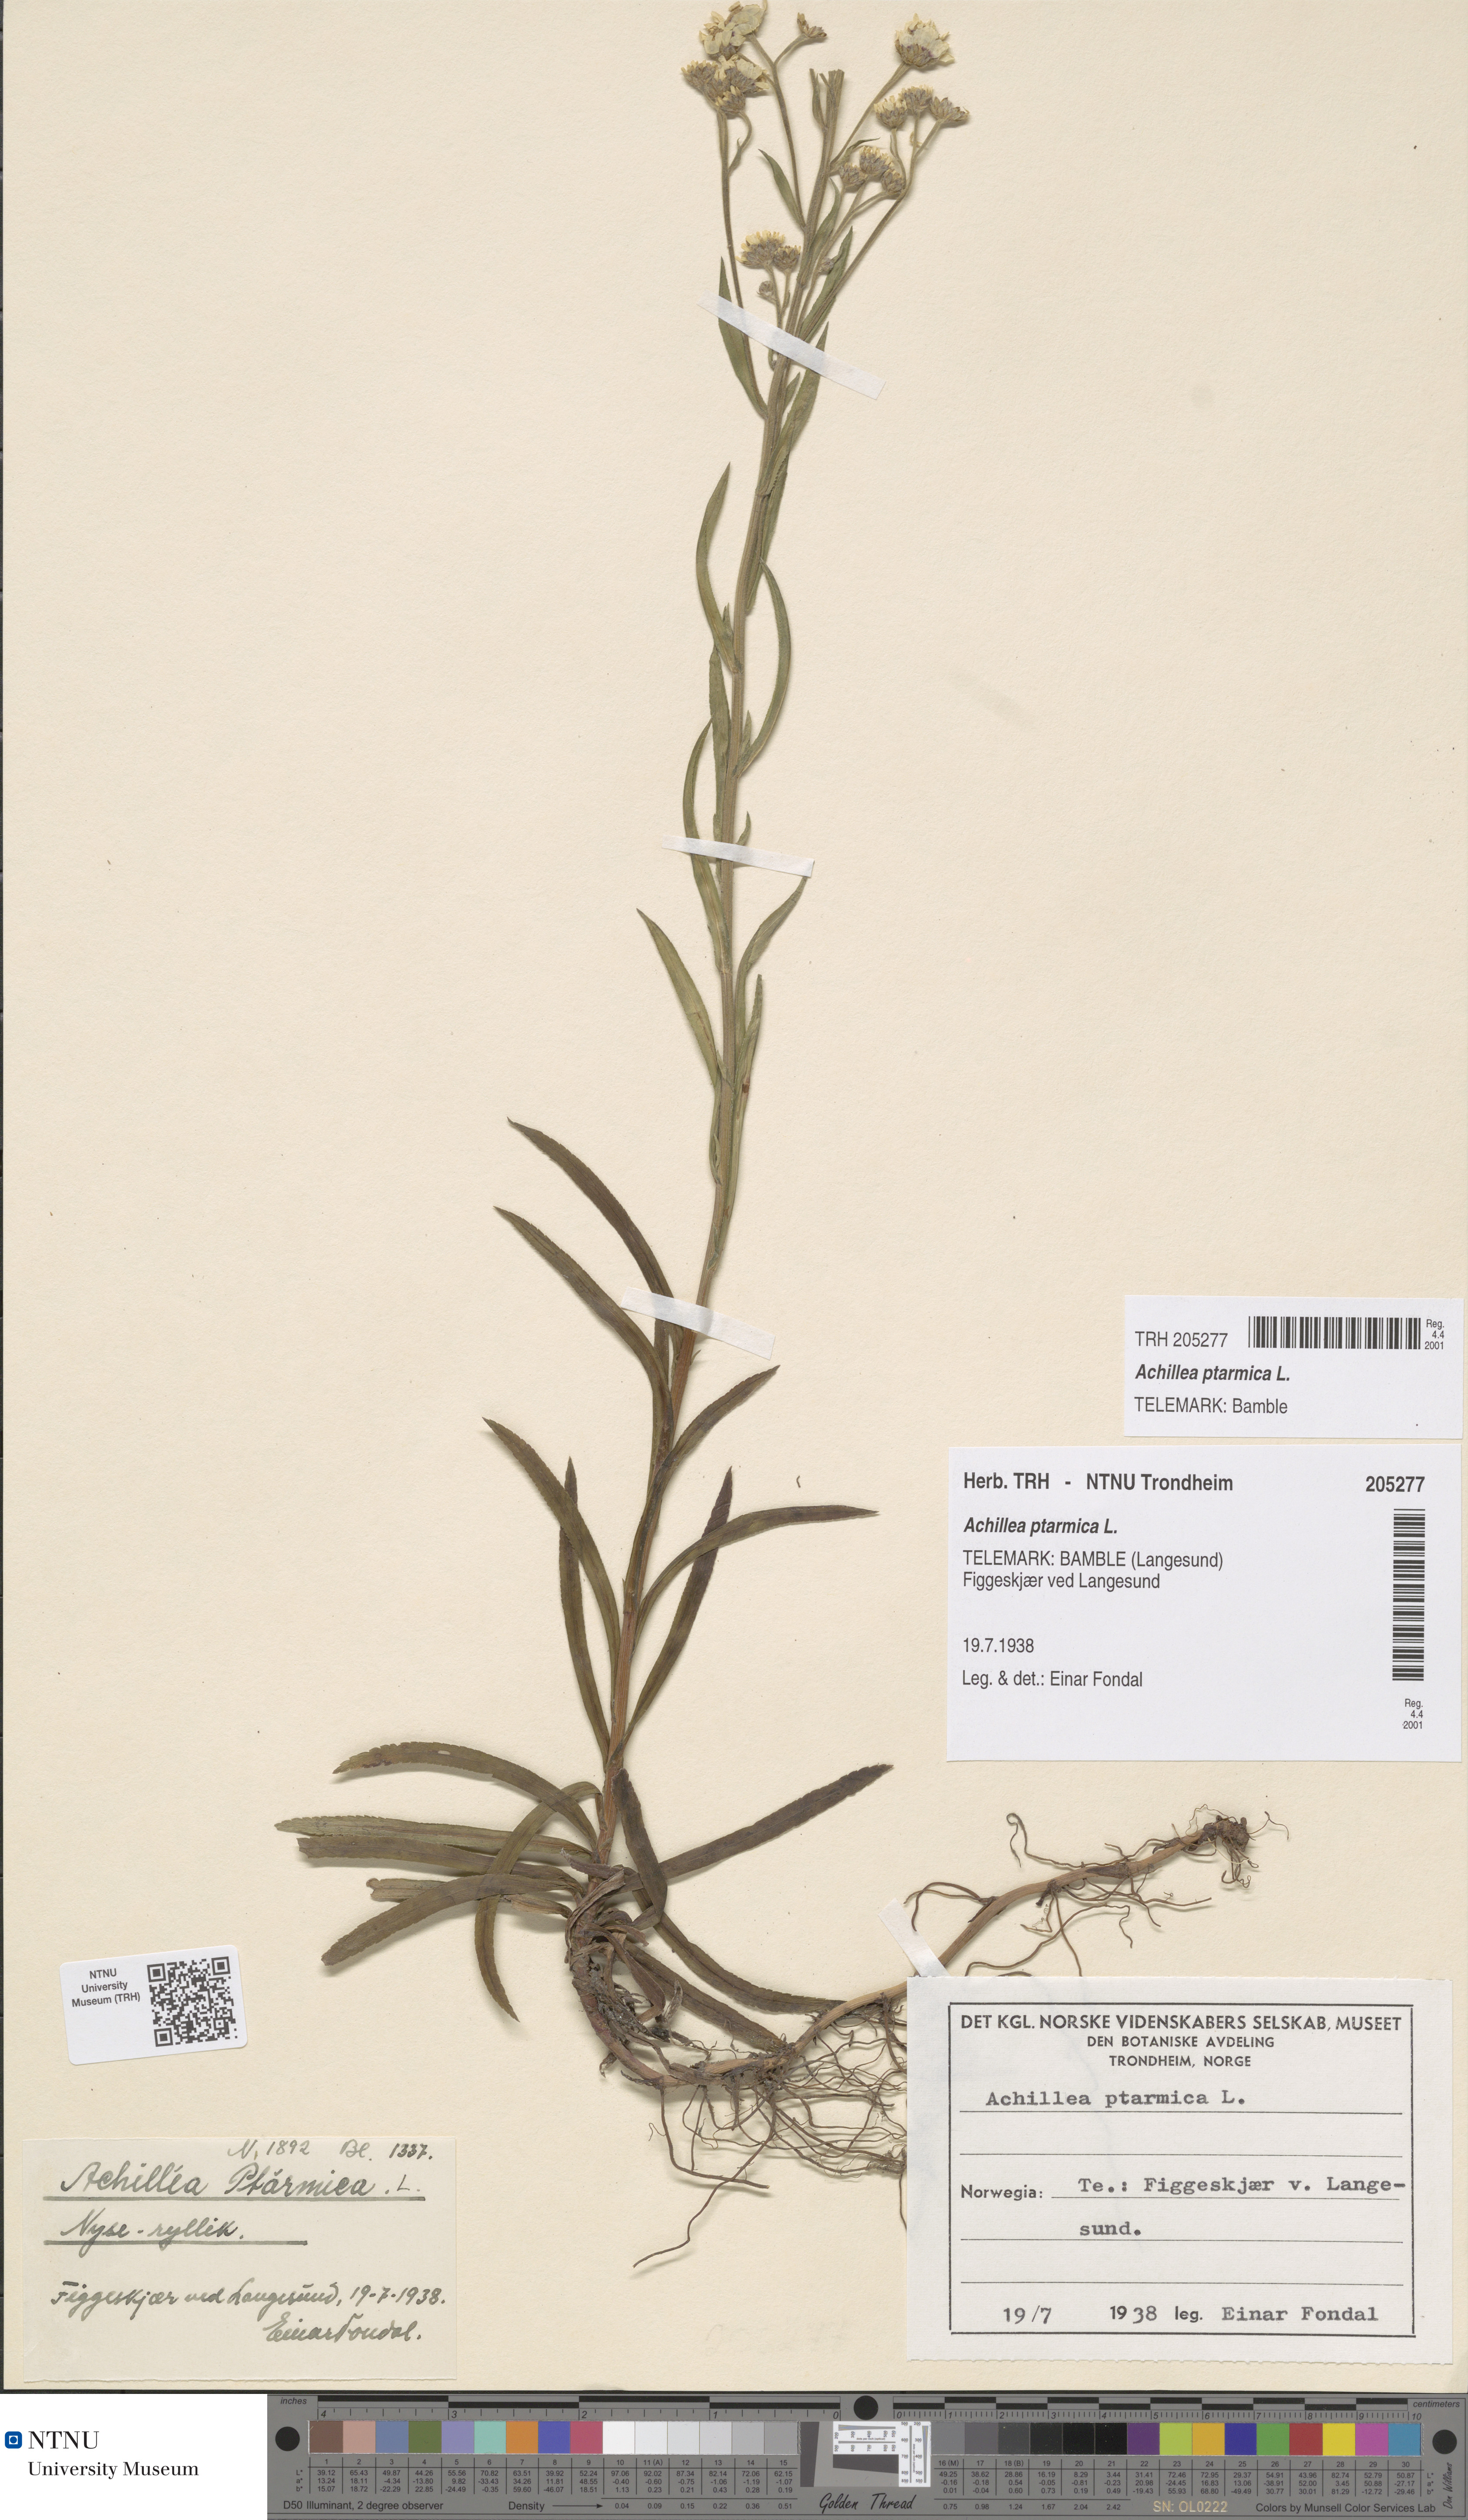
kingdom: Plantae
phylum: Tracheophyta
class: Magnoliopsida
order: Asterales
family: Asteraceae
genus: Achillea
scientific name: Achillea ptarmica
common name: Sneezeweed
